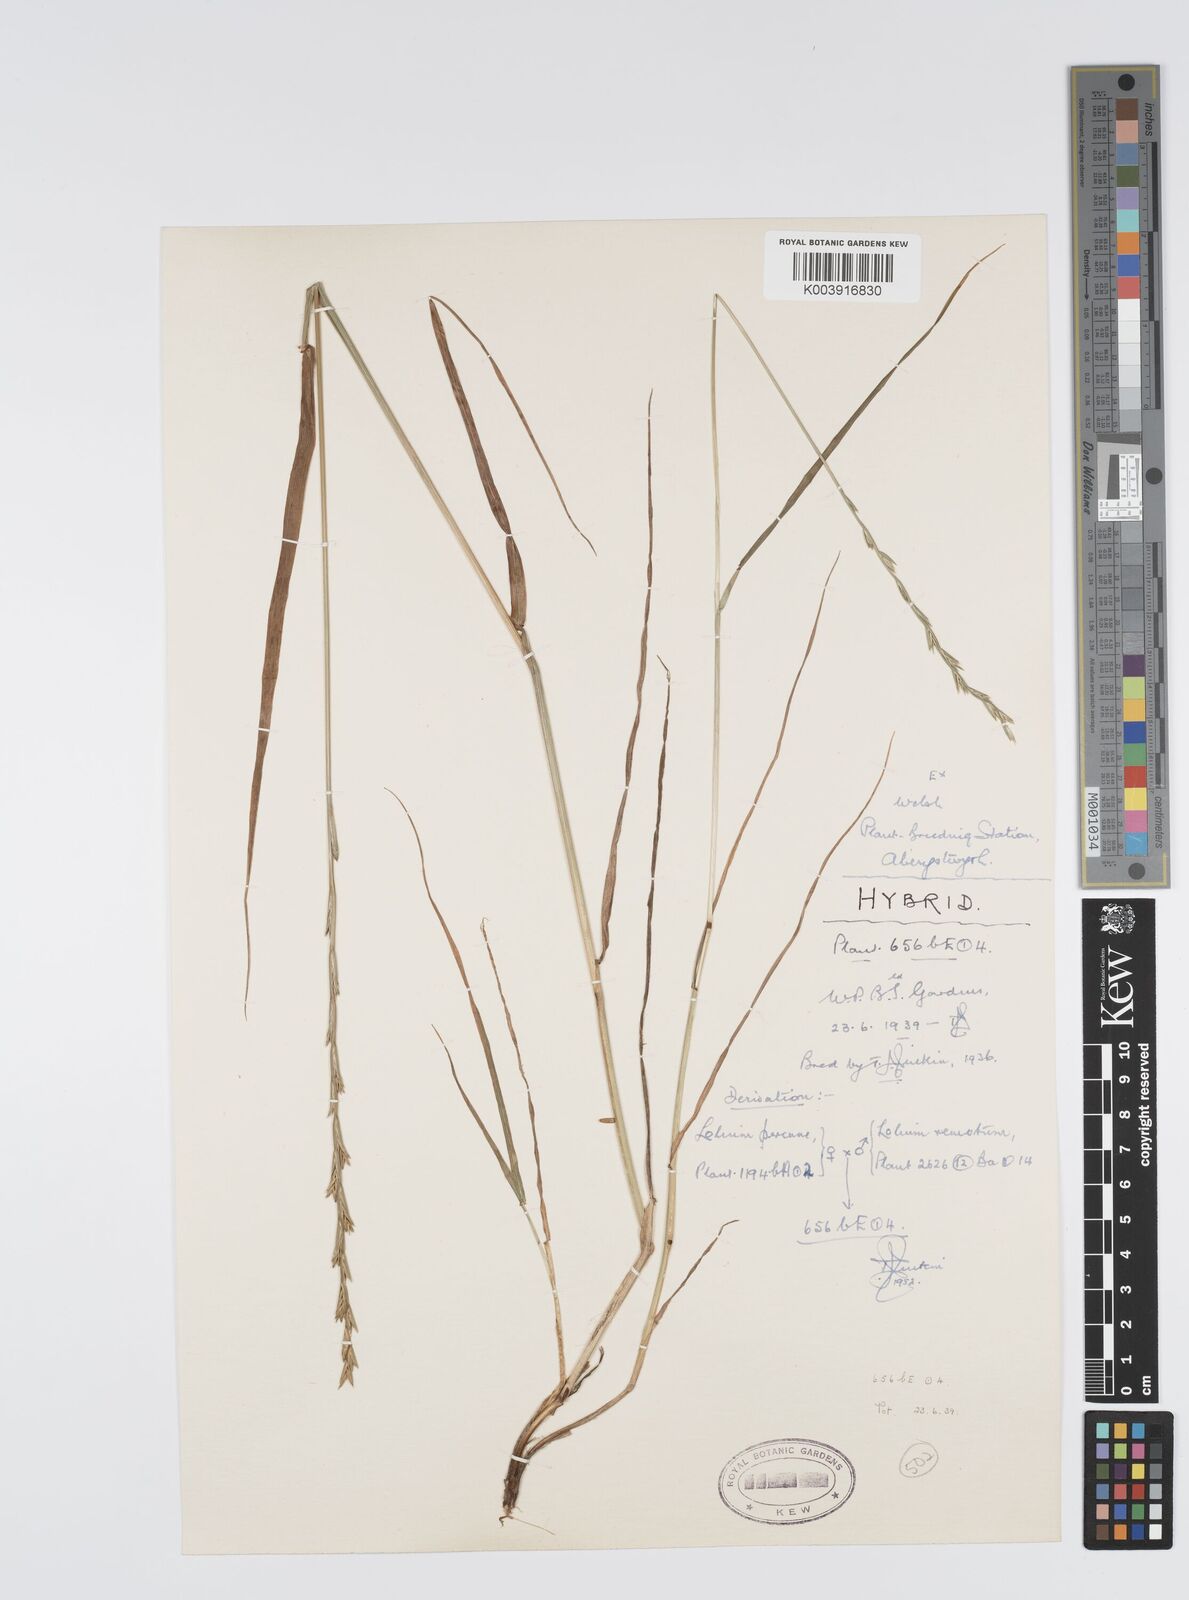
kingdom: Plantae
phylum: Tracheophyta
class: Liliopsida
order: Poales
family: Poaceae
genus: Lolium
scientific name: Lolium perenne
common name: Perennial ryegrass
